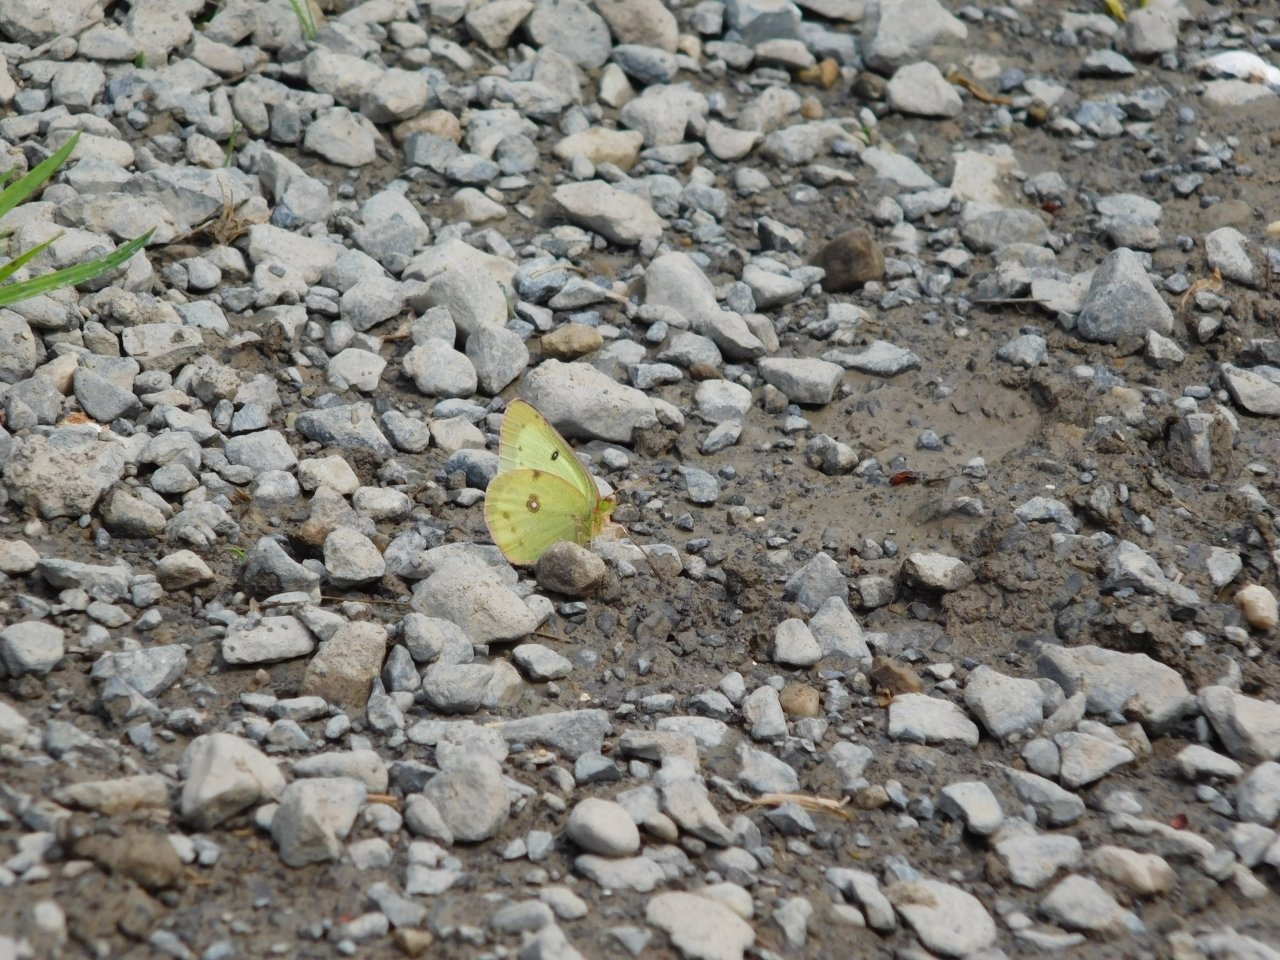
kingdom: Animalia
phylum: Arthropoda
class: Insecta
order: Lepidoptera
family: Pieridae
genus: Colias
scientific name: Colias philodice
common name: Clouded Sulphur
